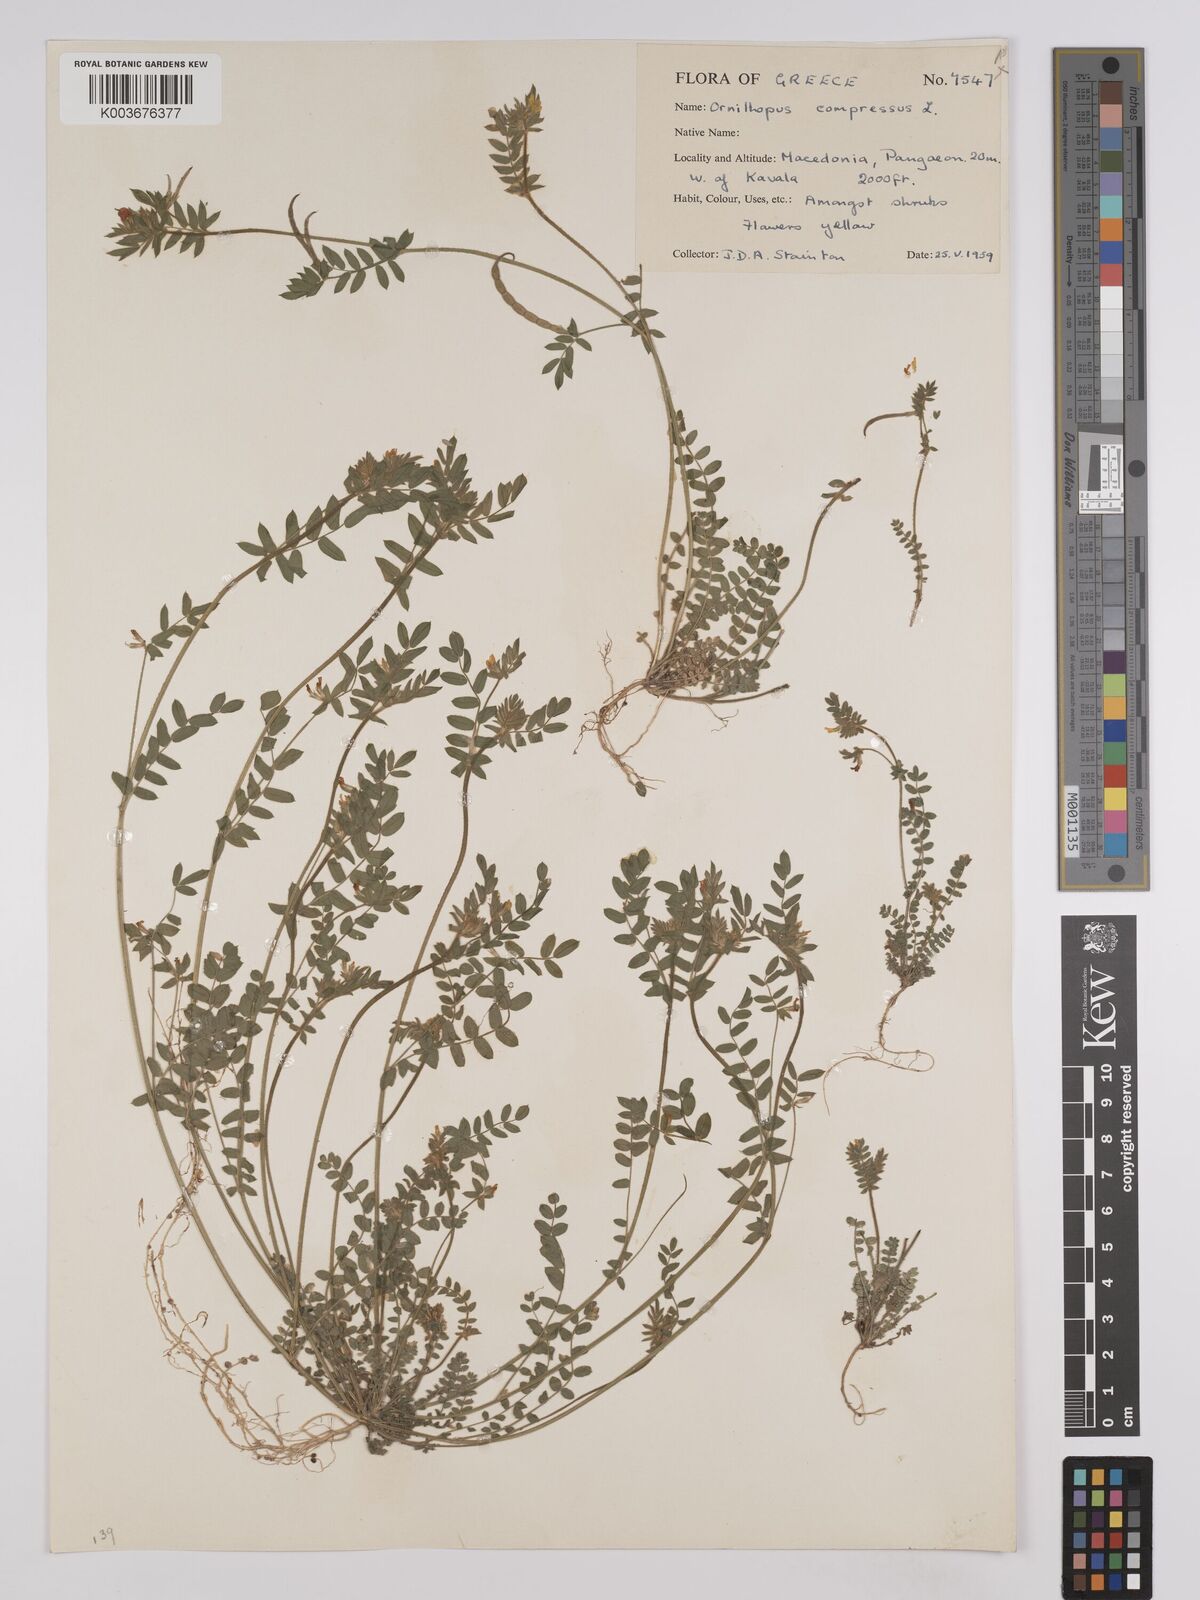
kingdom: Plantae
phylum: Tracheophyta
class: Magnoliopsida
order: Fabales
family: Fabaceae
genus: Ornithopus
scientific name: Ornithopus compressus
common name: Yellow serradella
